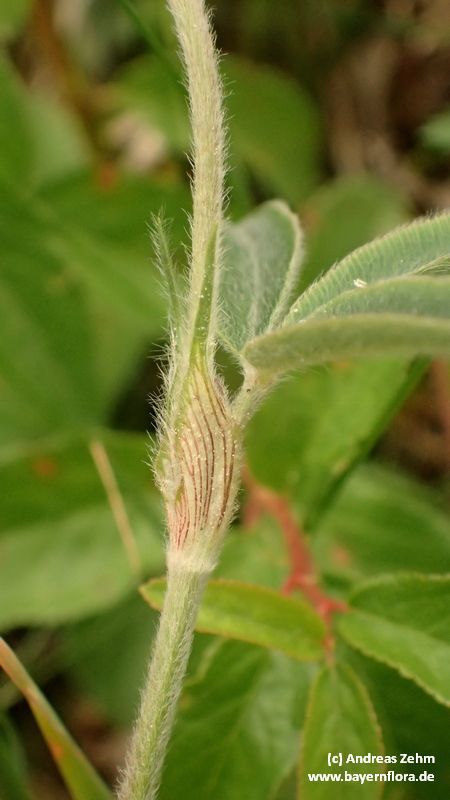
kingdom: Plantae
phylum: Tracheophyta
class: Magnoliopsida
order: Fabales
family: Fabaceae
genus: Trifolium
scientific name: Trifolium alpestre
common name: Owl-head clover
